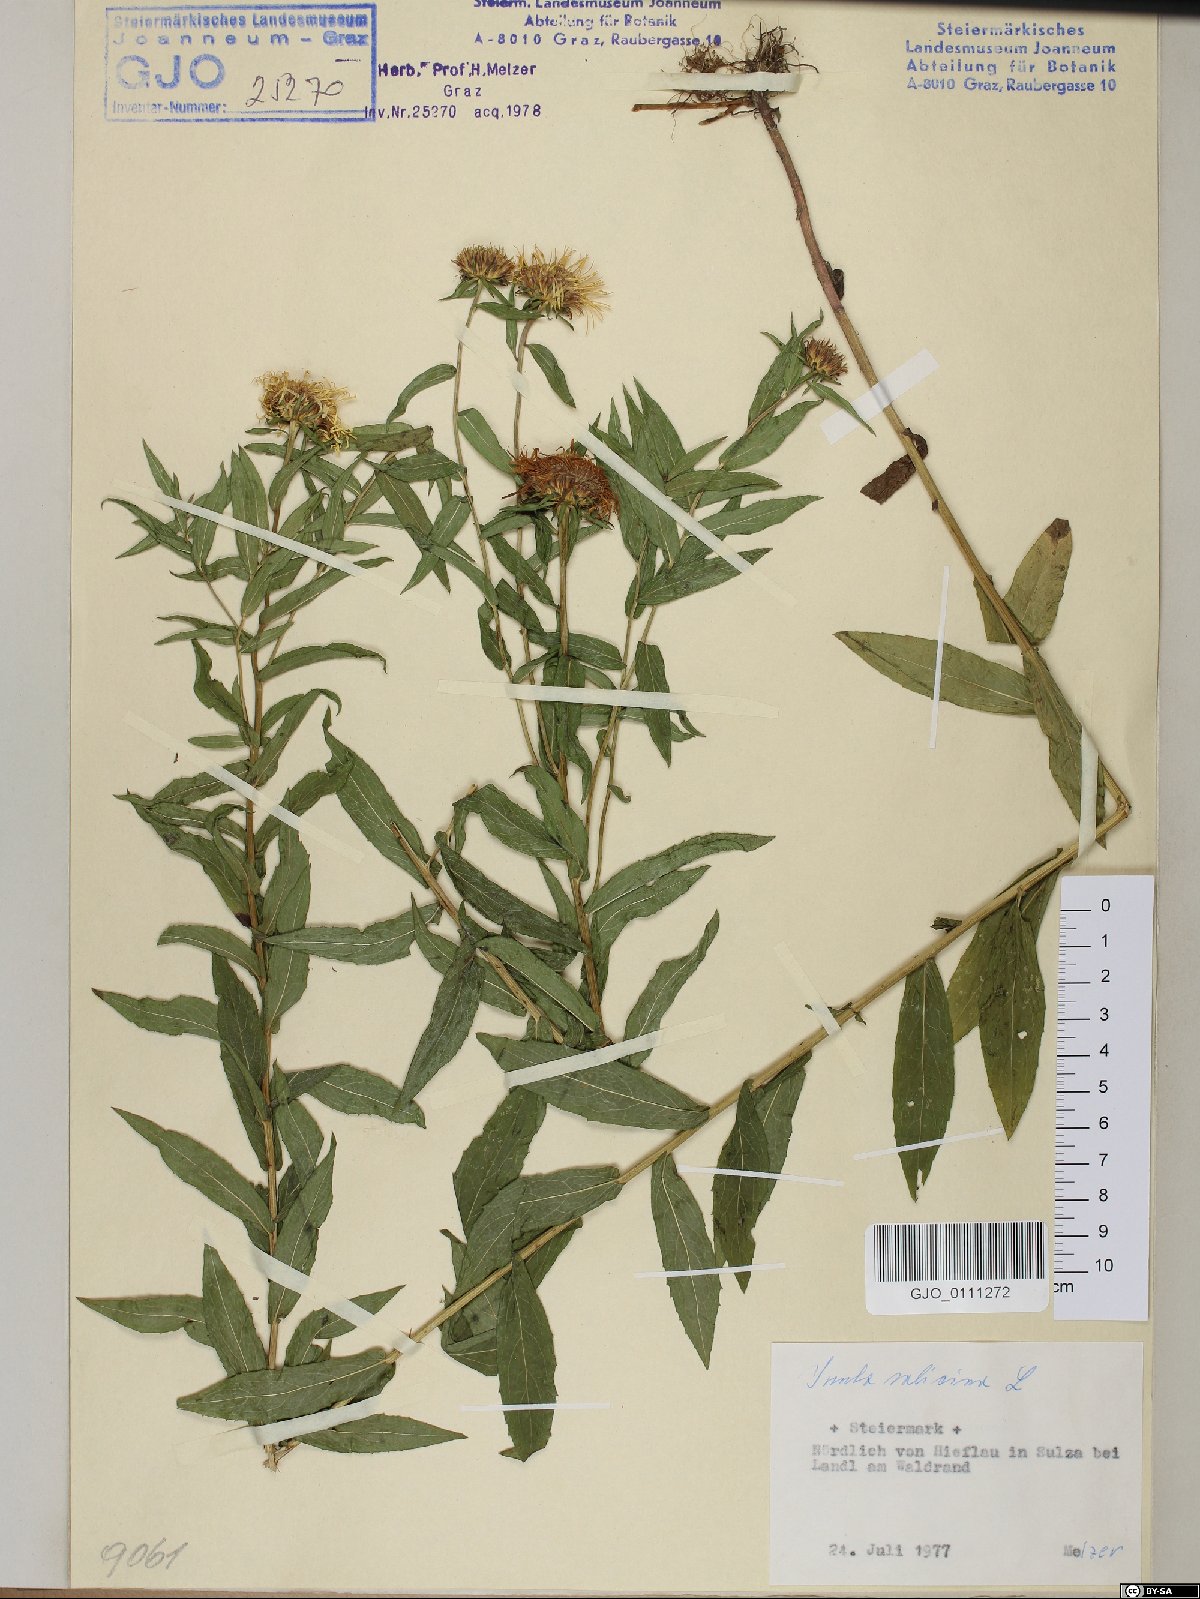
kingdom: Plantae
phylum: Tracheophyta
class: Magnoliopsida
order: Asterales
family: Asteraceae
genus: Pentanema
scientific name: Pentanema salicinum
